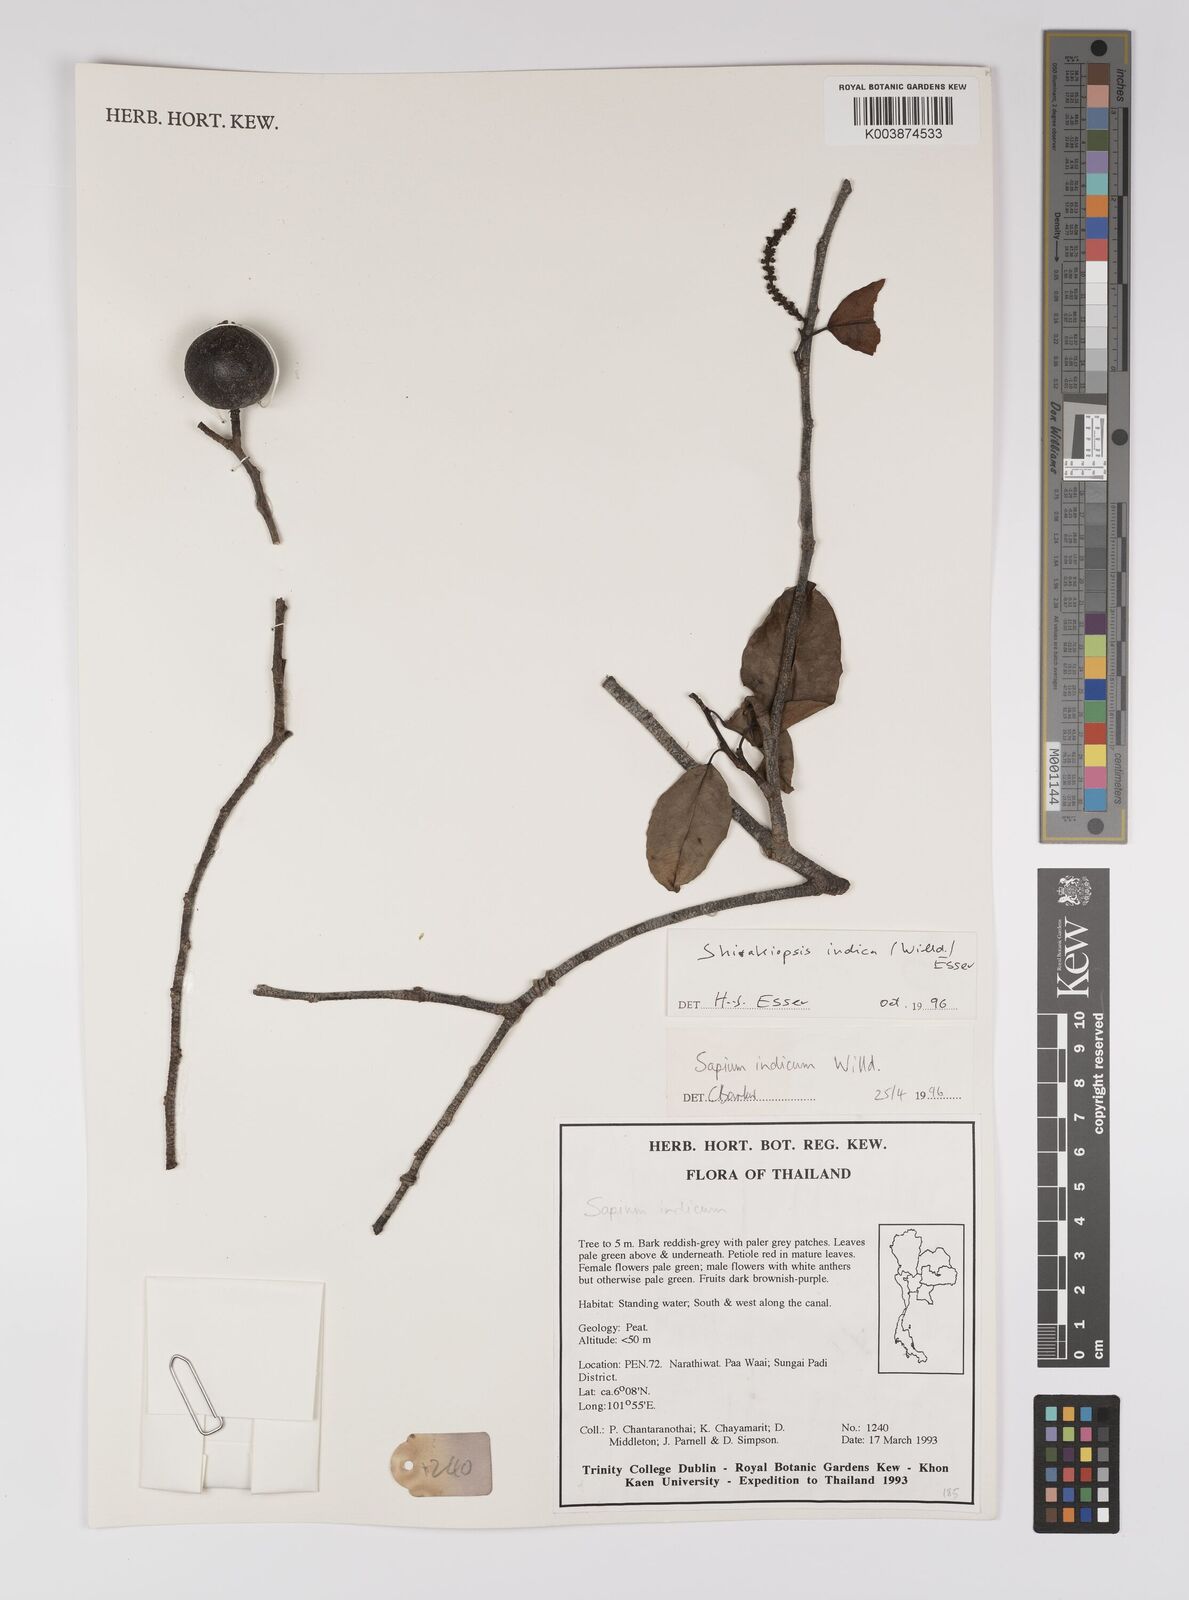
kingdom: Plantae
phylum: Tracheophyta
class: Magnoliopsida
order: Malpighiales
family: Euphorbiaceae
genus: Shirakiopsis
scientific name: Shirakiopsis indica
